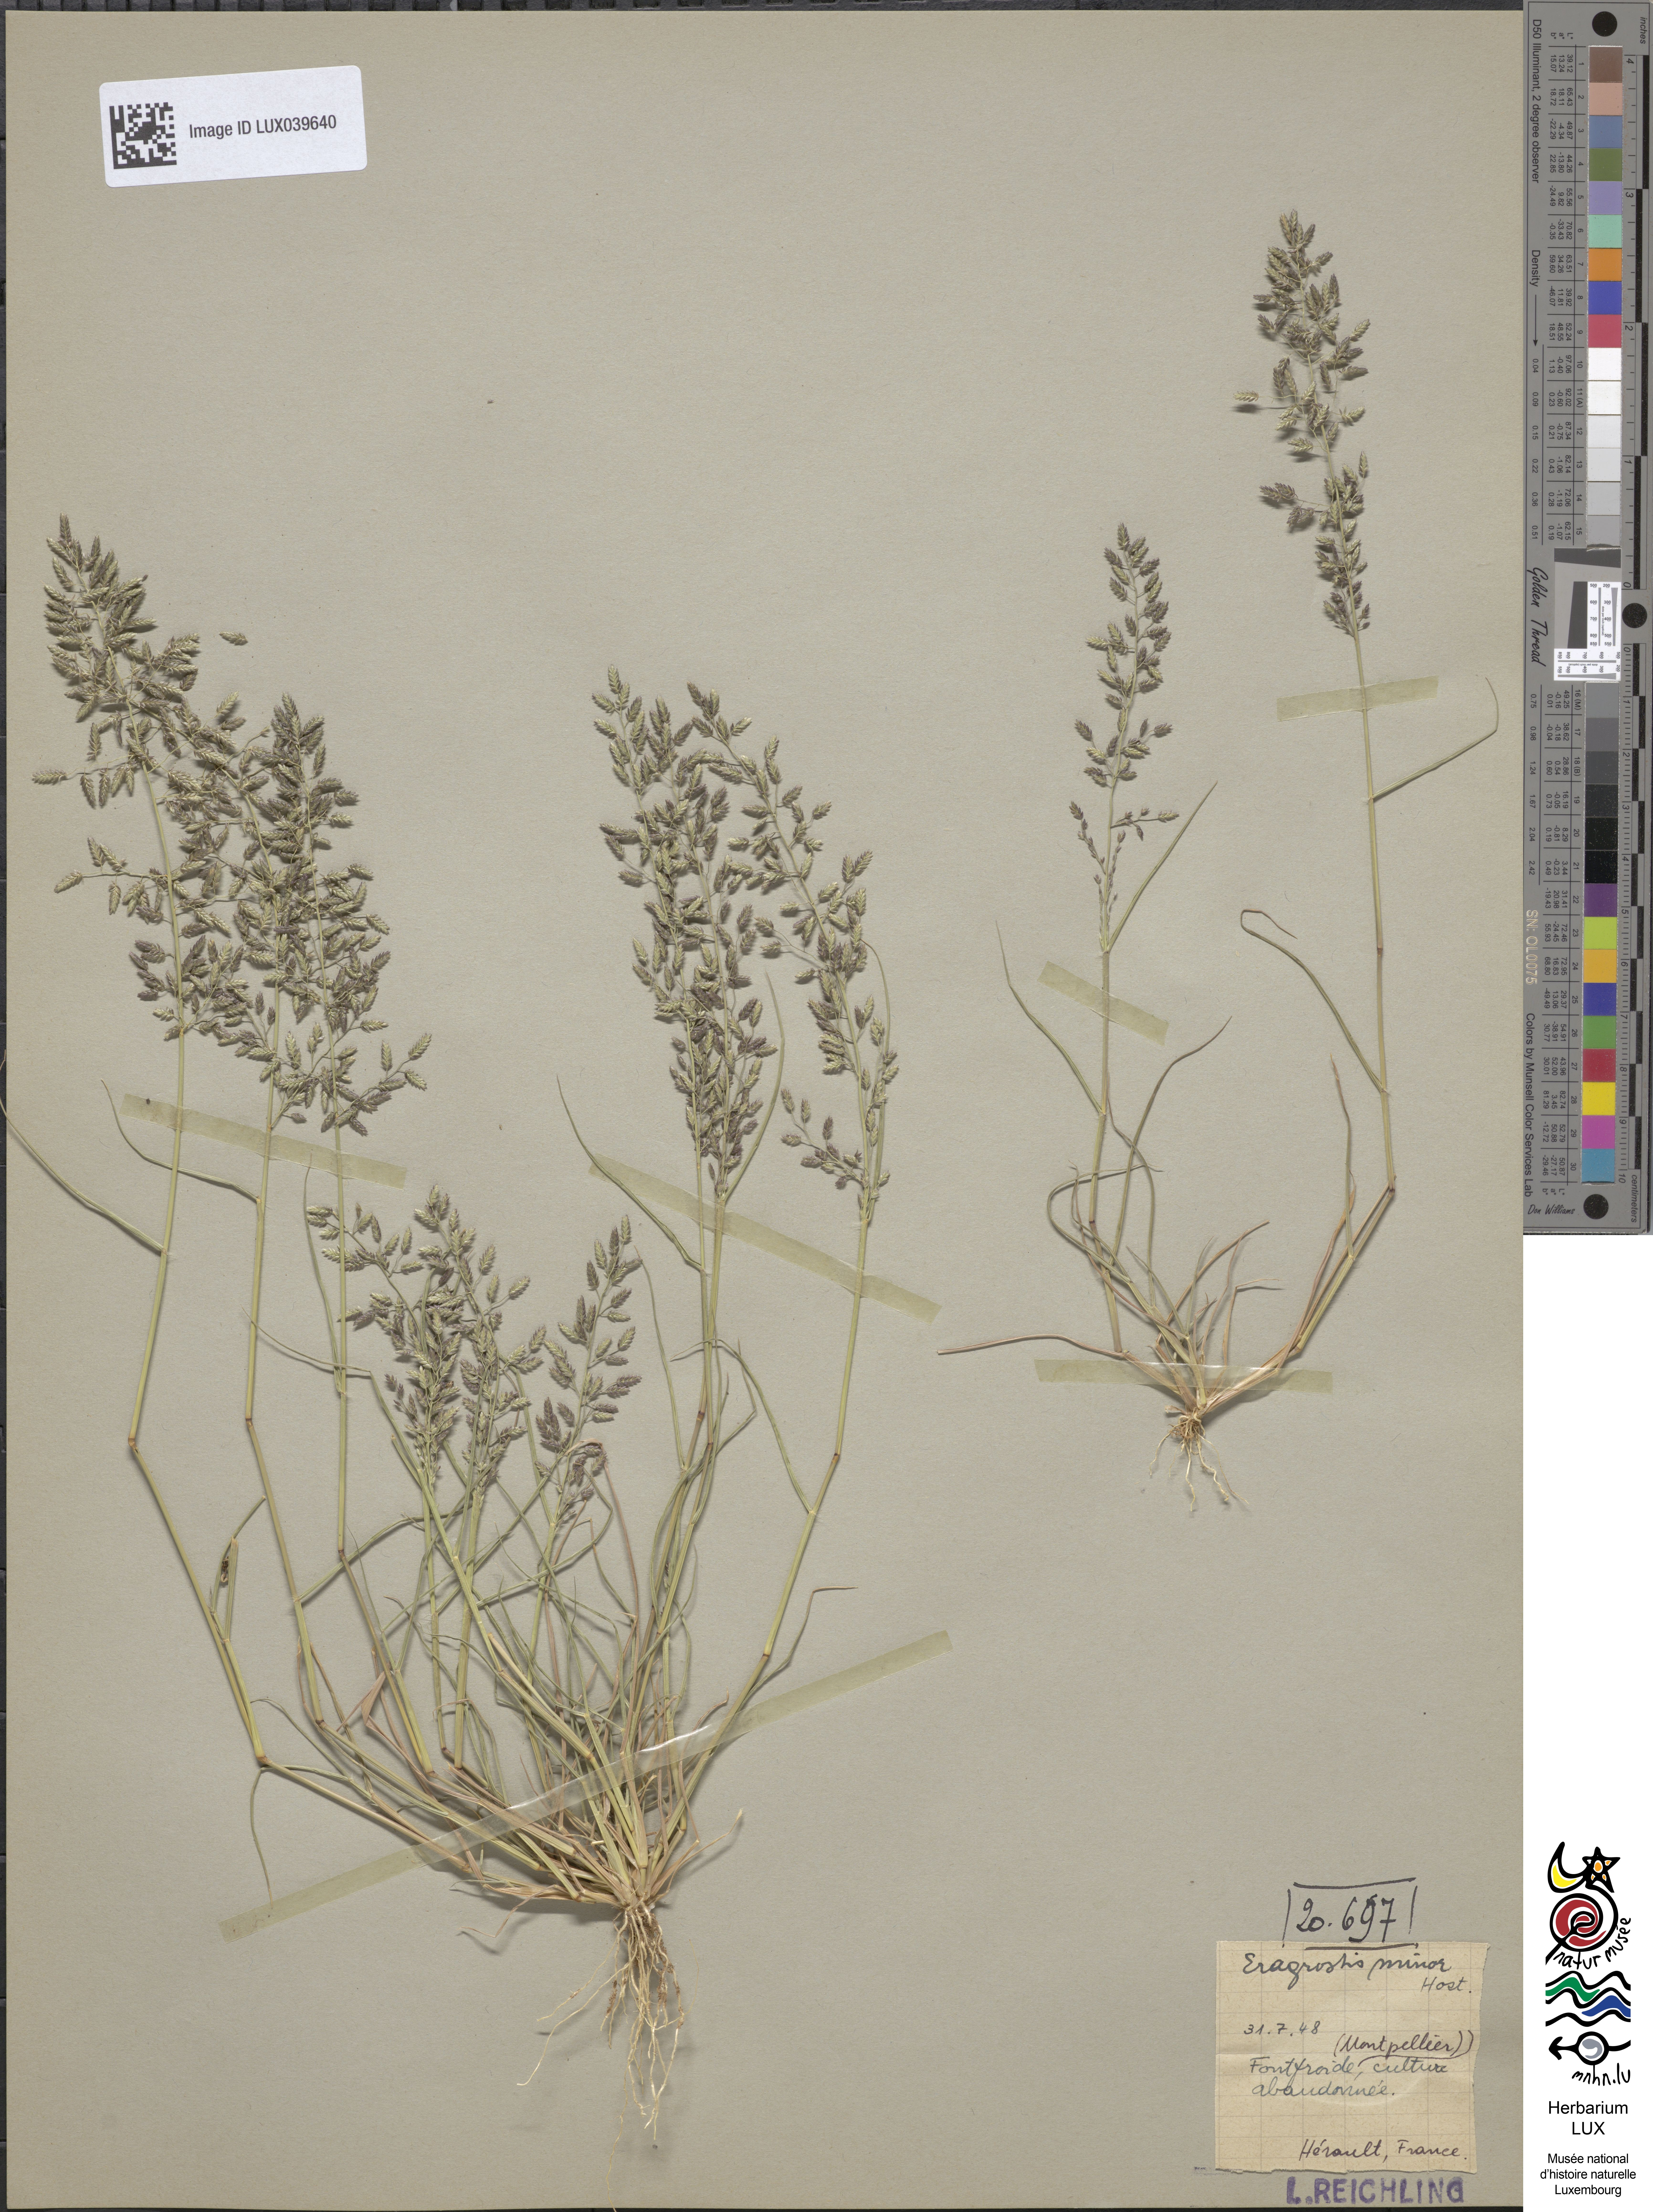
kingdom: Plantae
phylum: Tracheophyta
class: Liliopsida
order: Poales
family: Poaceae
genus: Eragrostis
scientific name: Eragrostis minor
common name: Small love-grass
